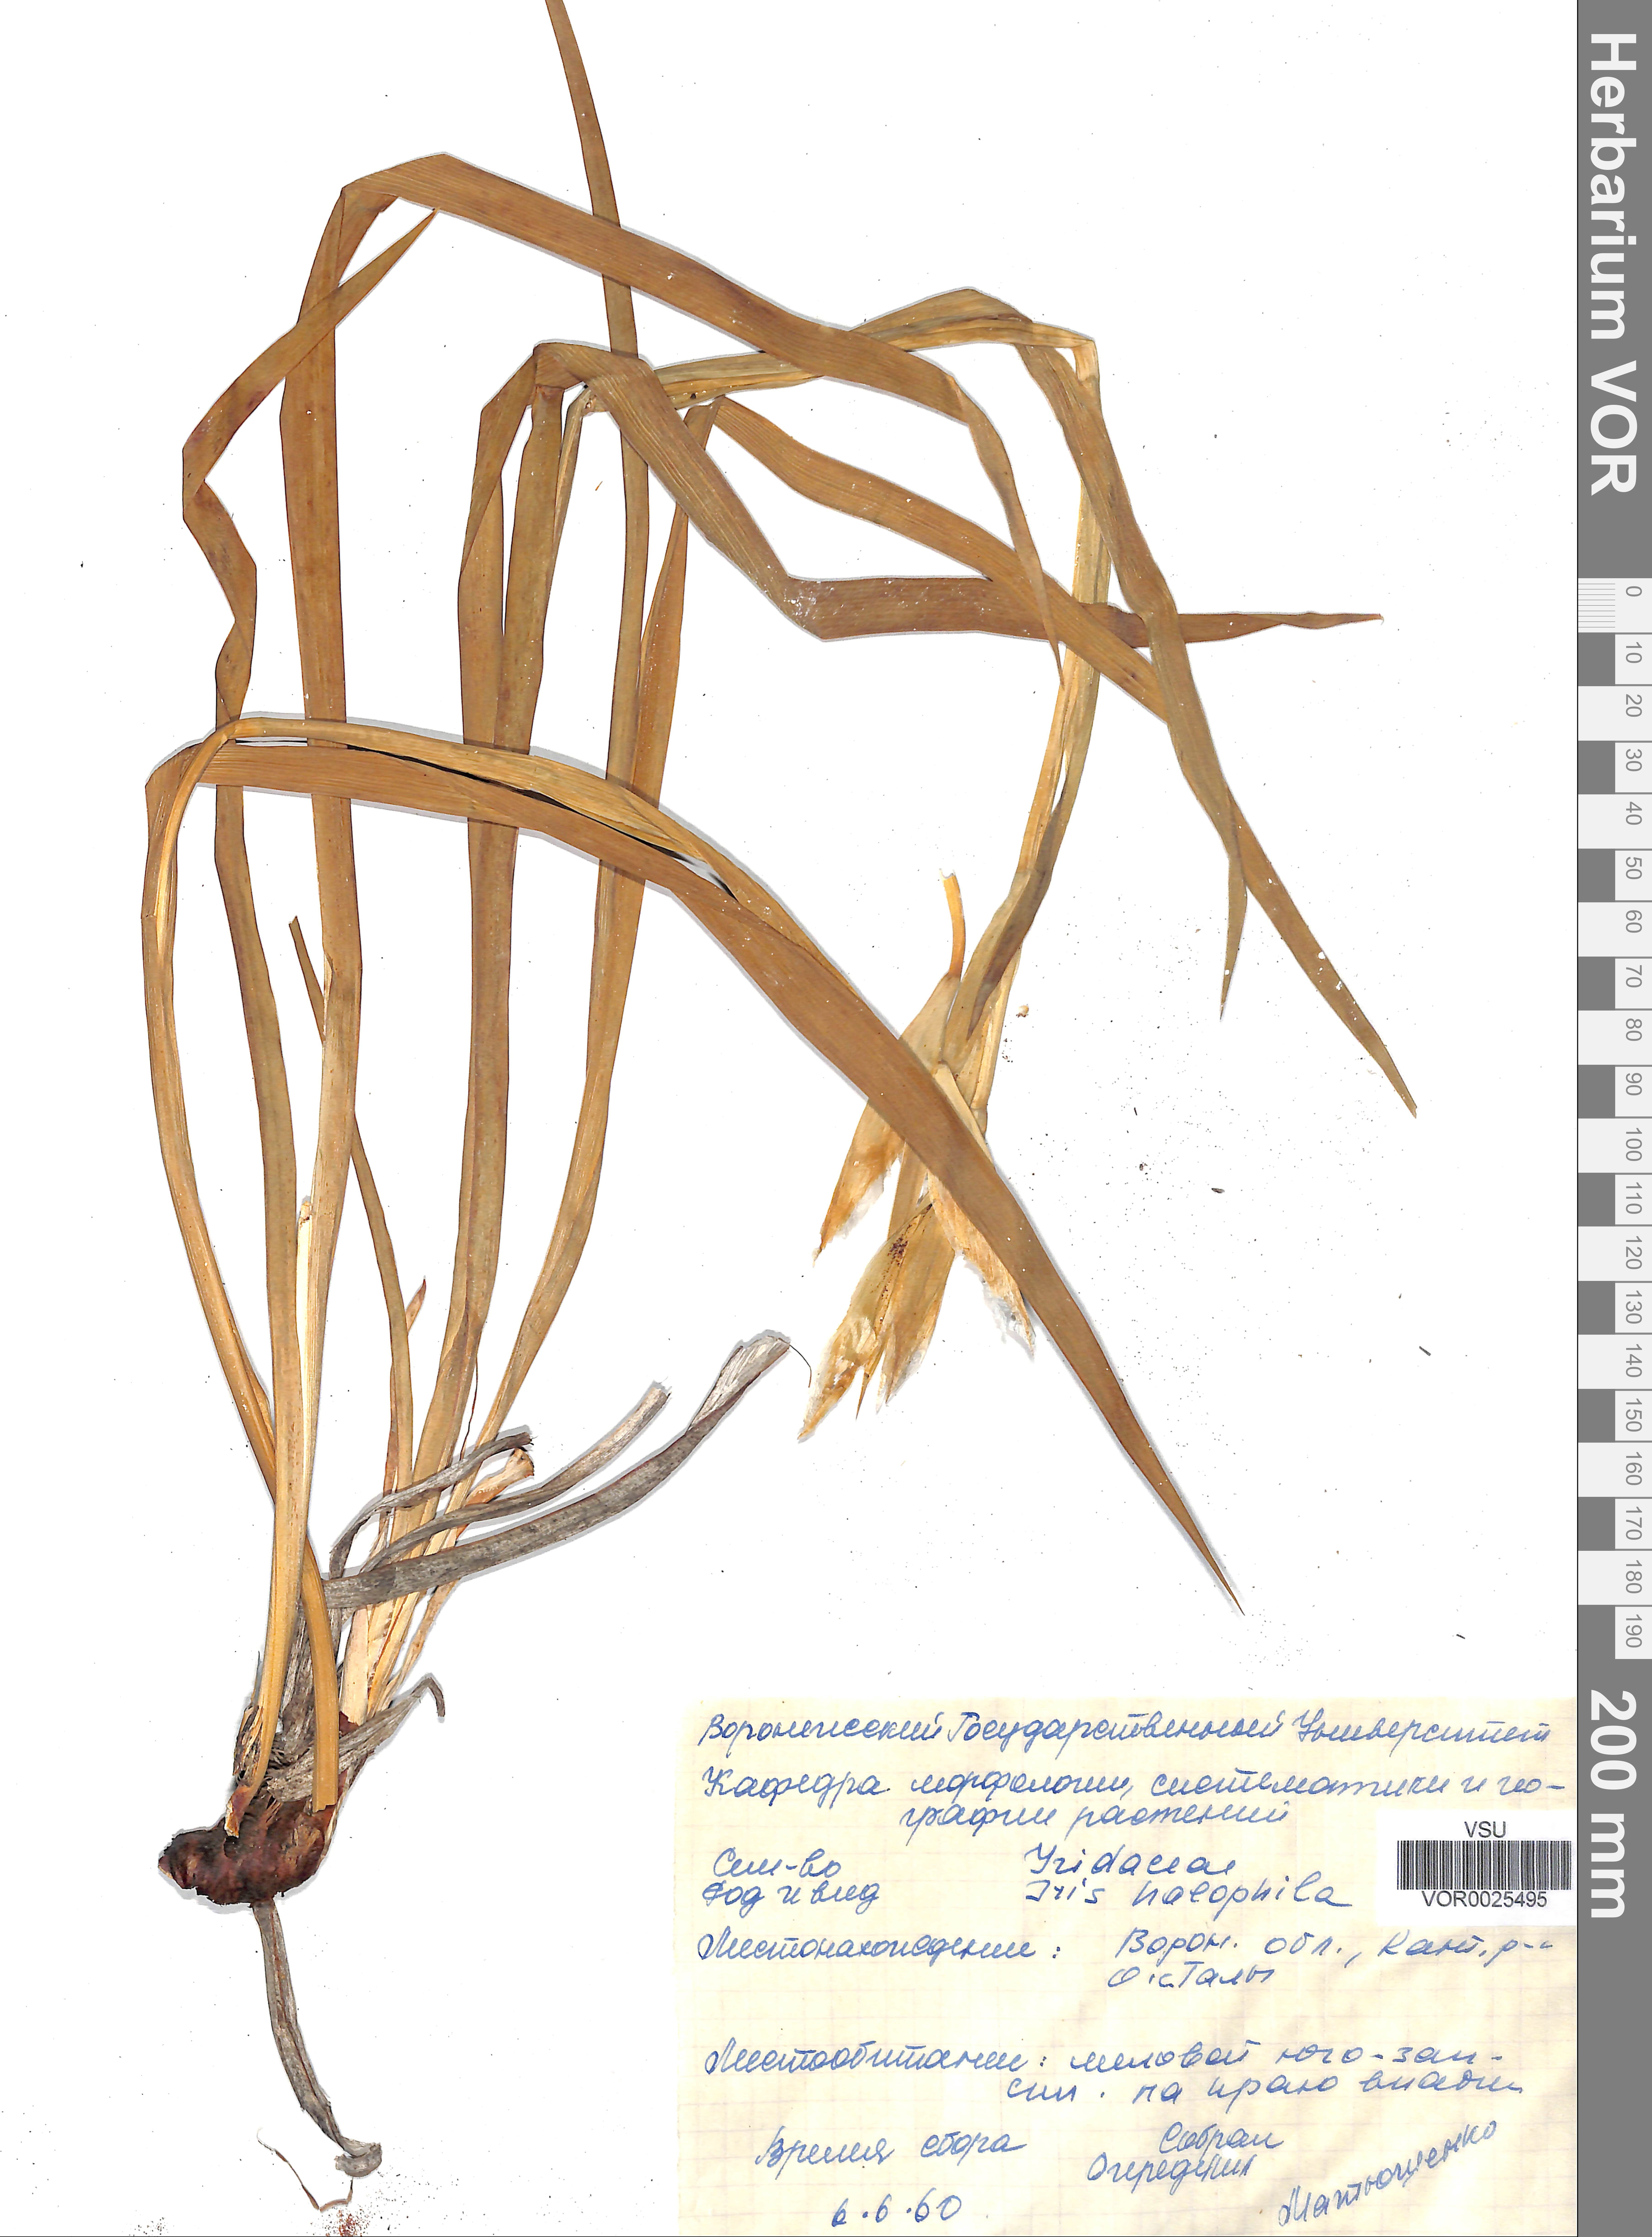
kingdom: Plantae
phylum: Tracheophyta
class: Liliopsida
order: Asparagales
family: Iridaceae
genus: Iris
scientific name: Iris halophila
